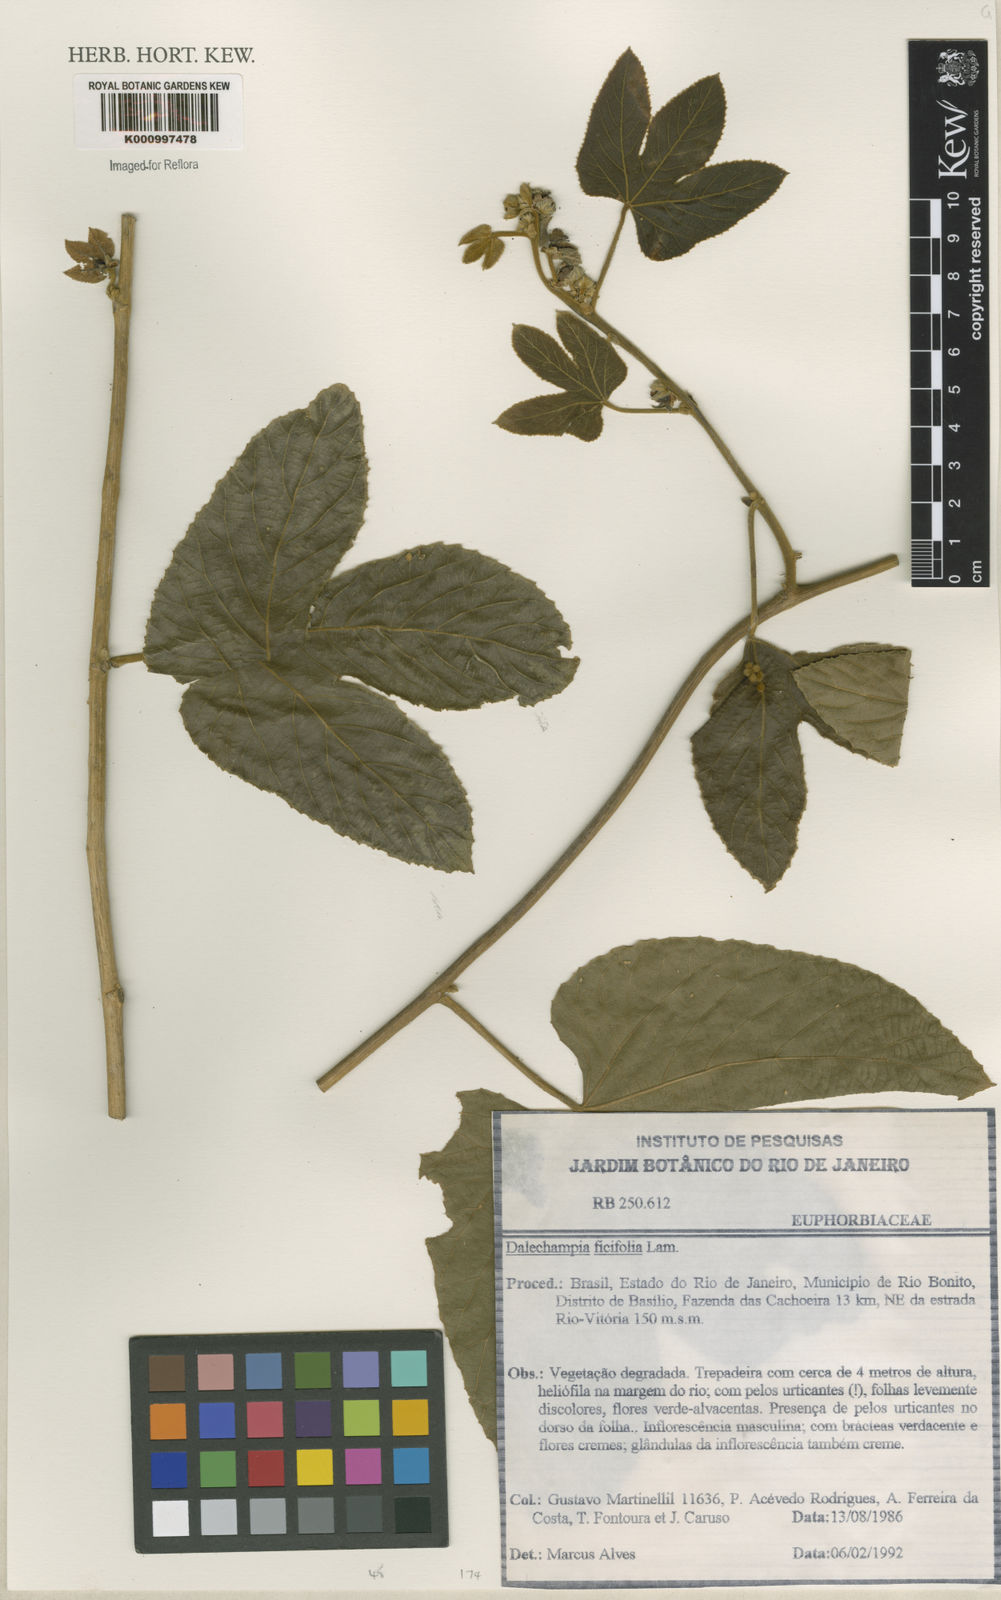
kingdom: Plantae
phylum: Tracheophyta
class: Magnoliopsida
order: Malpighiales
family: Euphorbiaceae
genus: Dalechampia
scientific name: Dalechampia ficifolia
